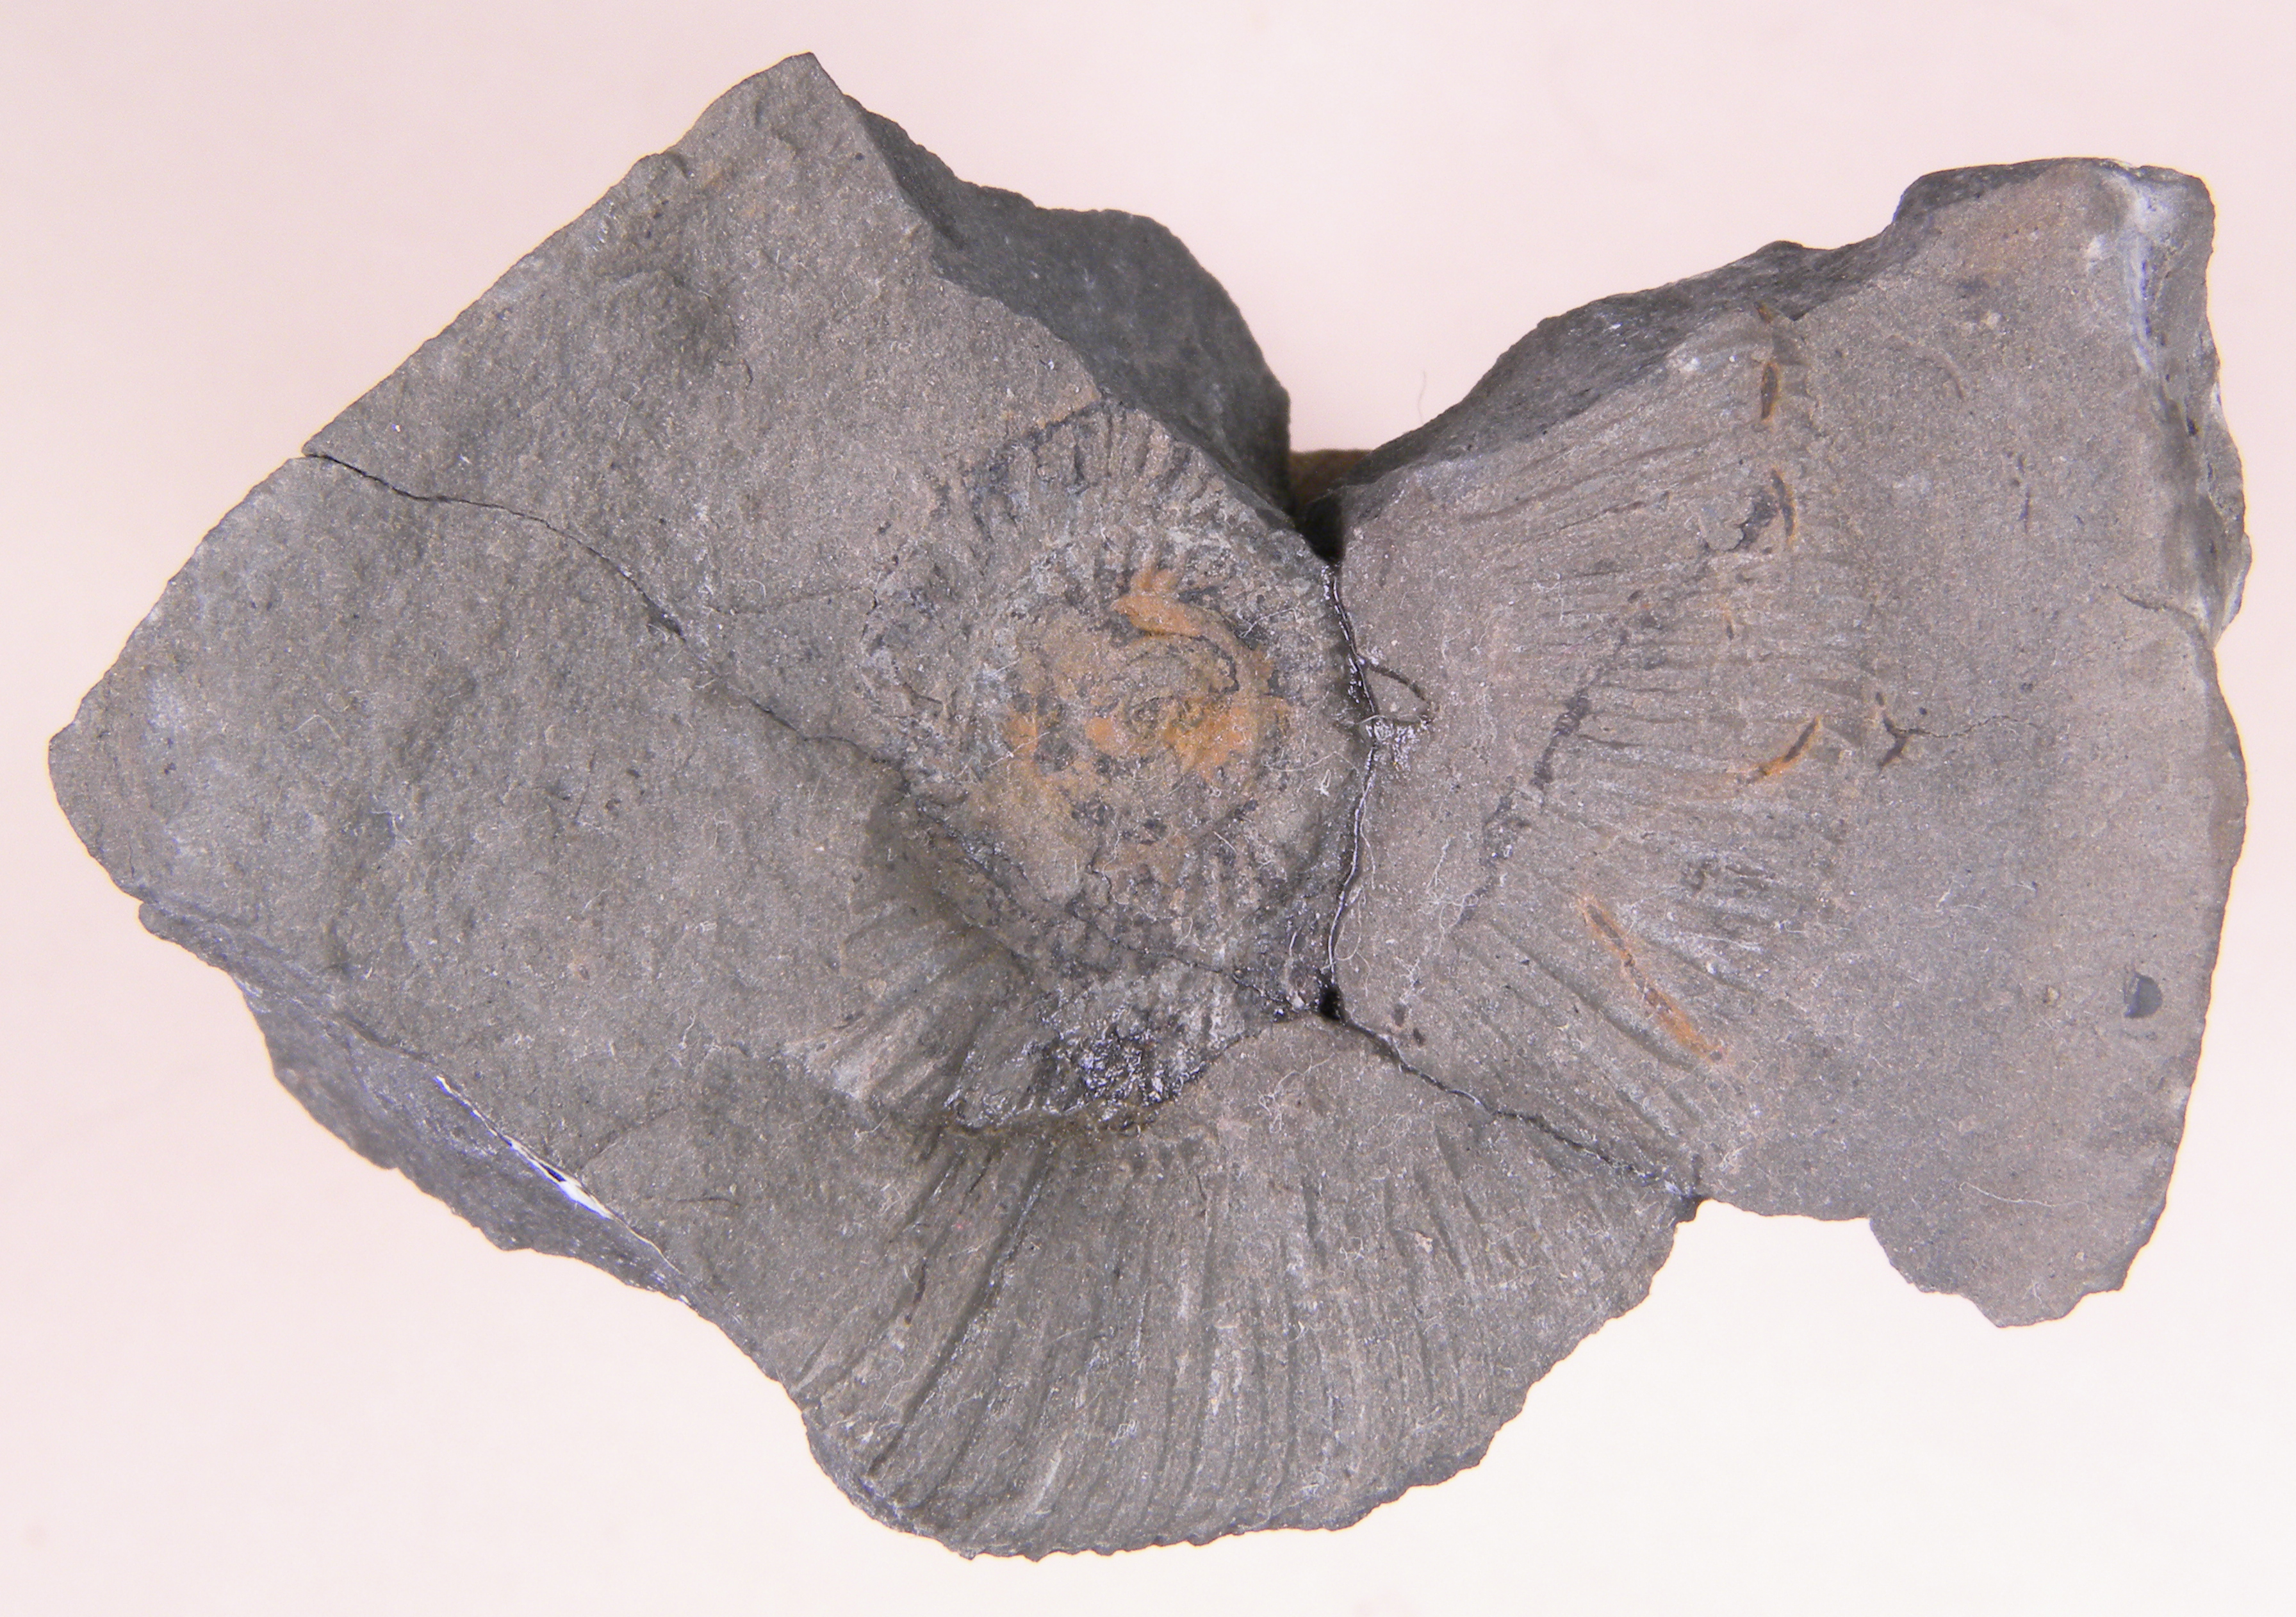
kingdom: Animalia
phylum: Mollusca
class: Cephalopoda
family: Dactylioceratidae
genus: Dactylioceras
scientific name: Dactylioceras
